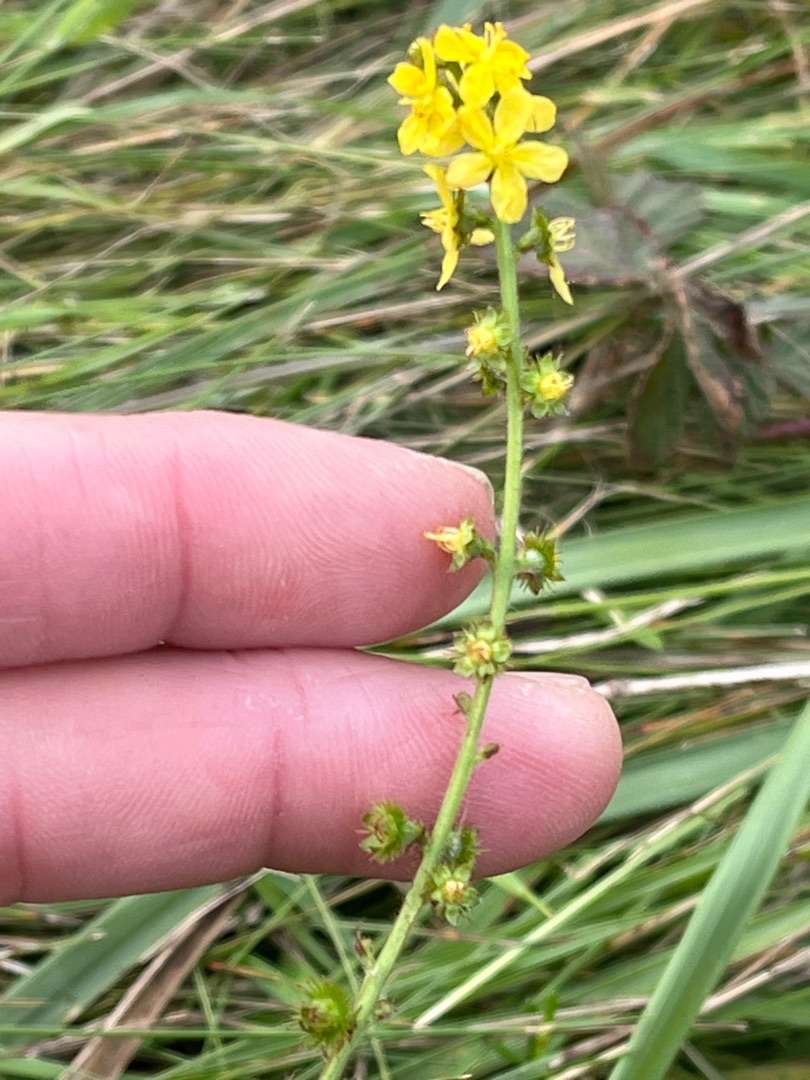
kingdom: Plantae
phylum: Tracheophyta
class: Magnoliopsida
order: Rosales
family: Rosaceae
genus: Agrimonia
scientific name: Agrimonia eupatoria
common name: Almindelig agermåne
